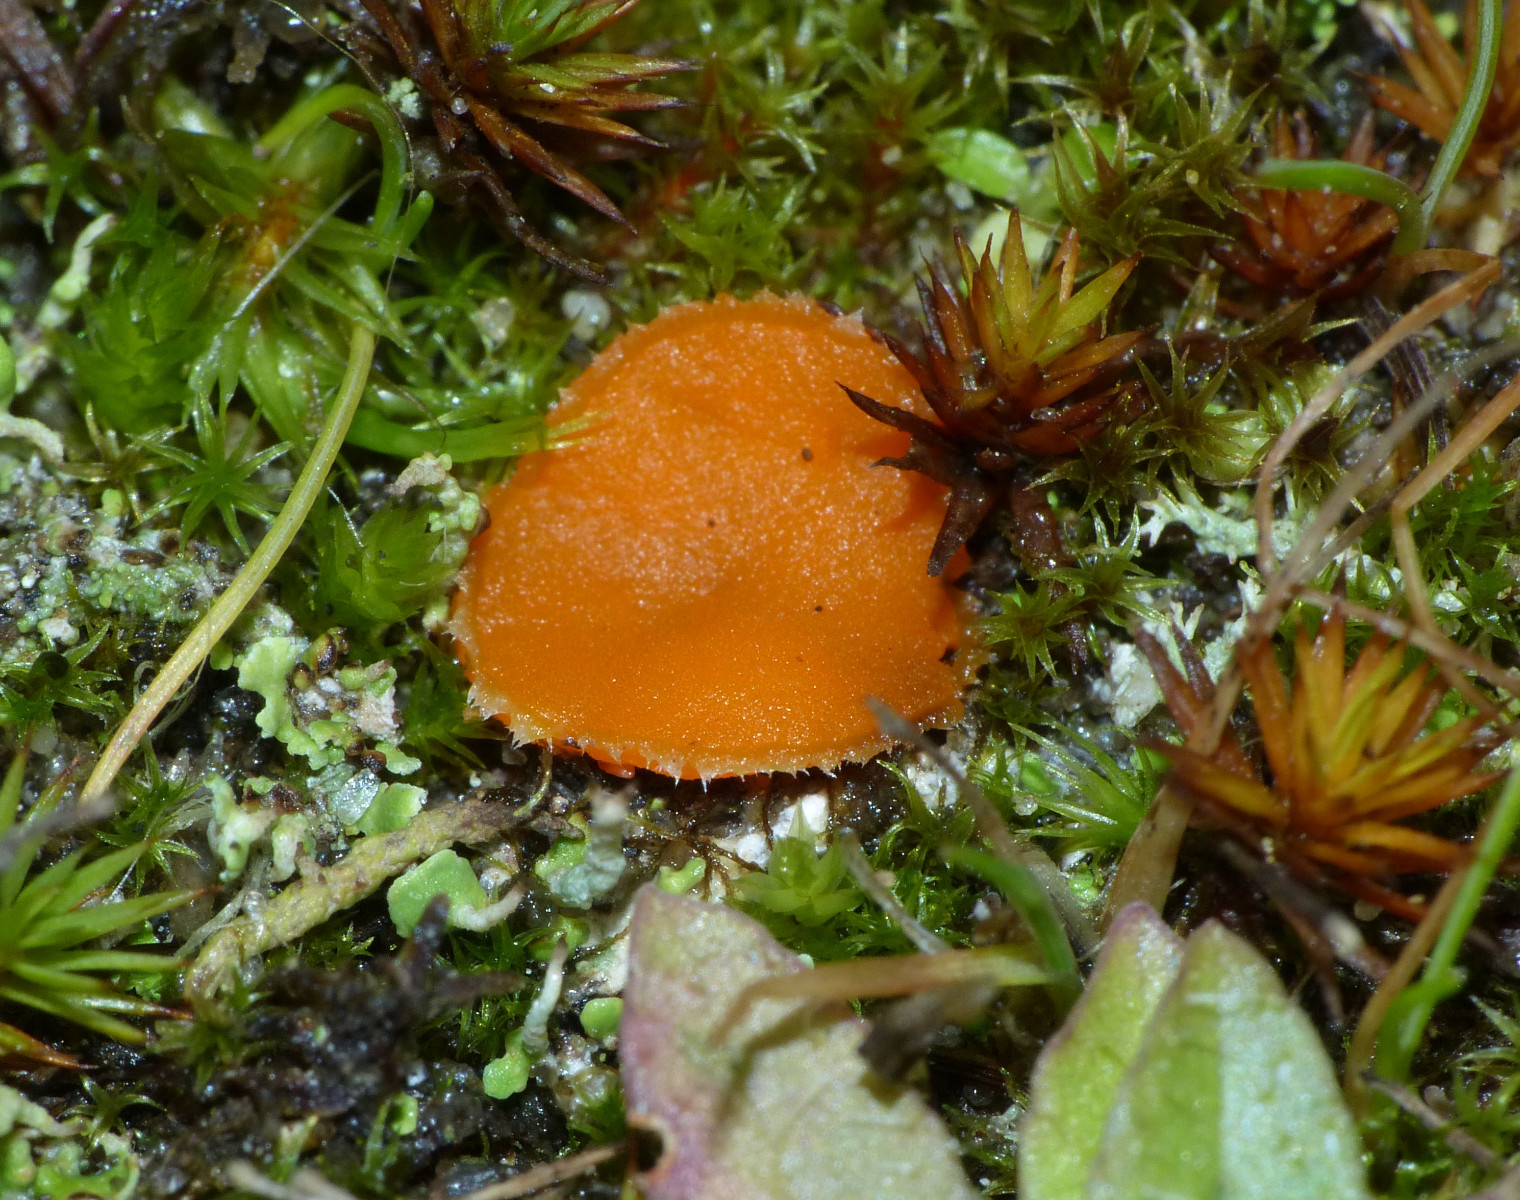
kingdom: Fungi
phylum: Ascomycota
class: Pezizomycetes
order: Pezizales
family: Pyronemataceae
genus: Neottiella
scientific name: Neottiella rutilans
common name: jomfruhår-mosbæger
